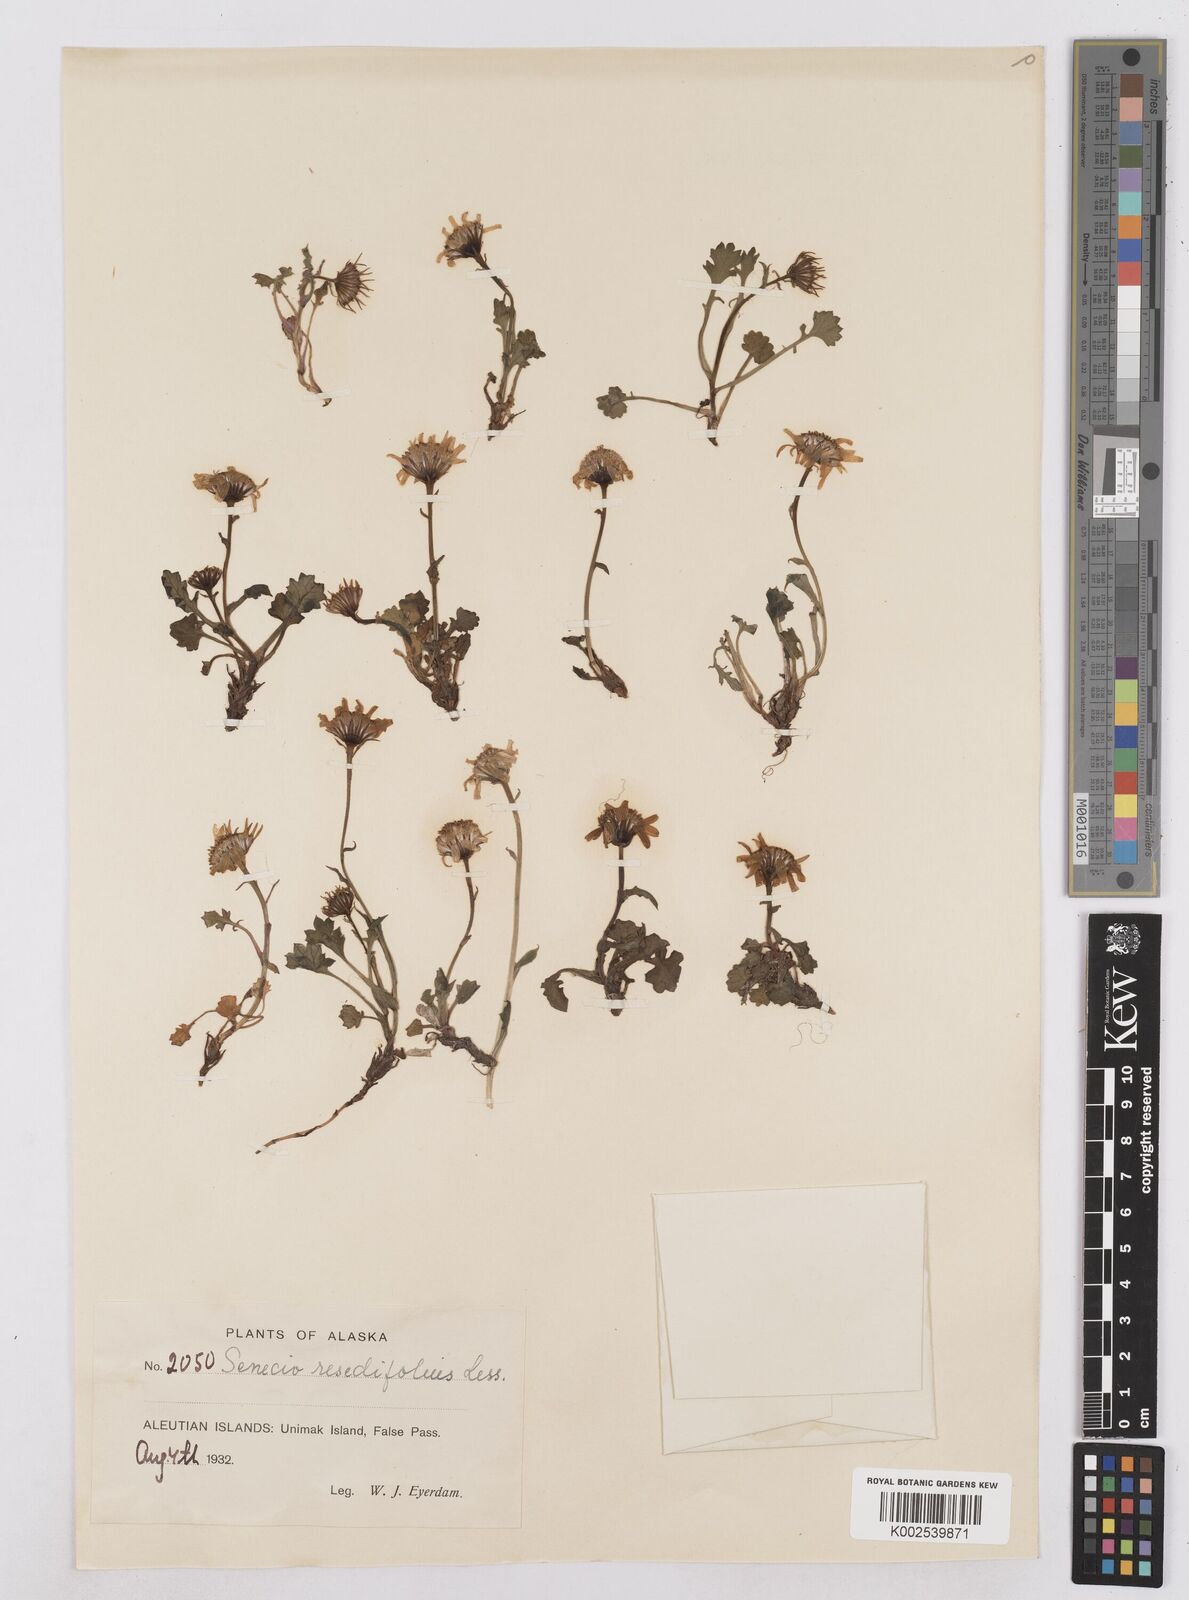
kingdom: Plantae
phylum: Tracheophyta
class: Magnoliopsida
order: Asterales
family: Asteraceae
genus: Packera
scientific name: Packera cymbalaria
